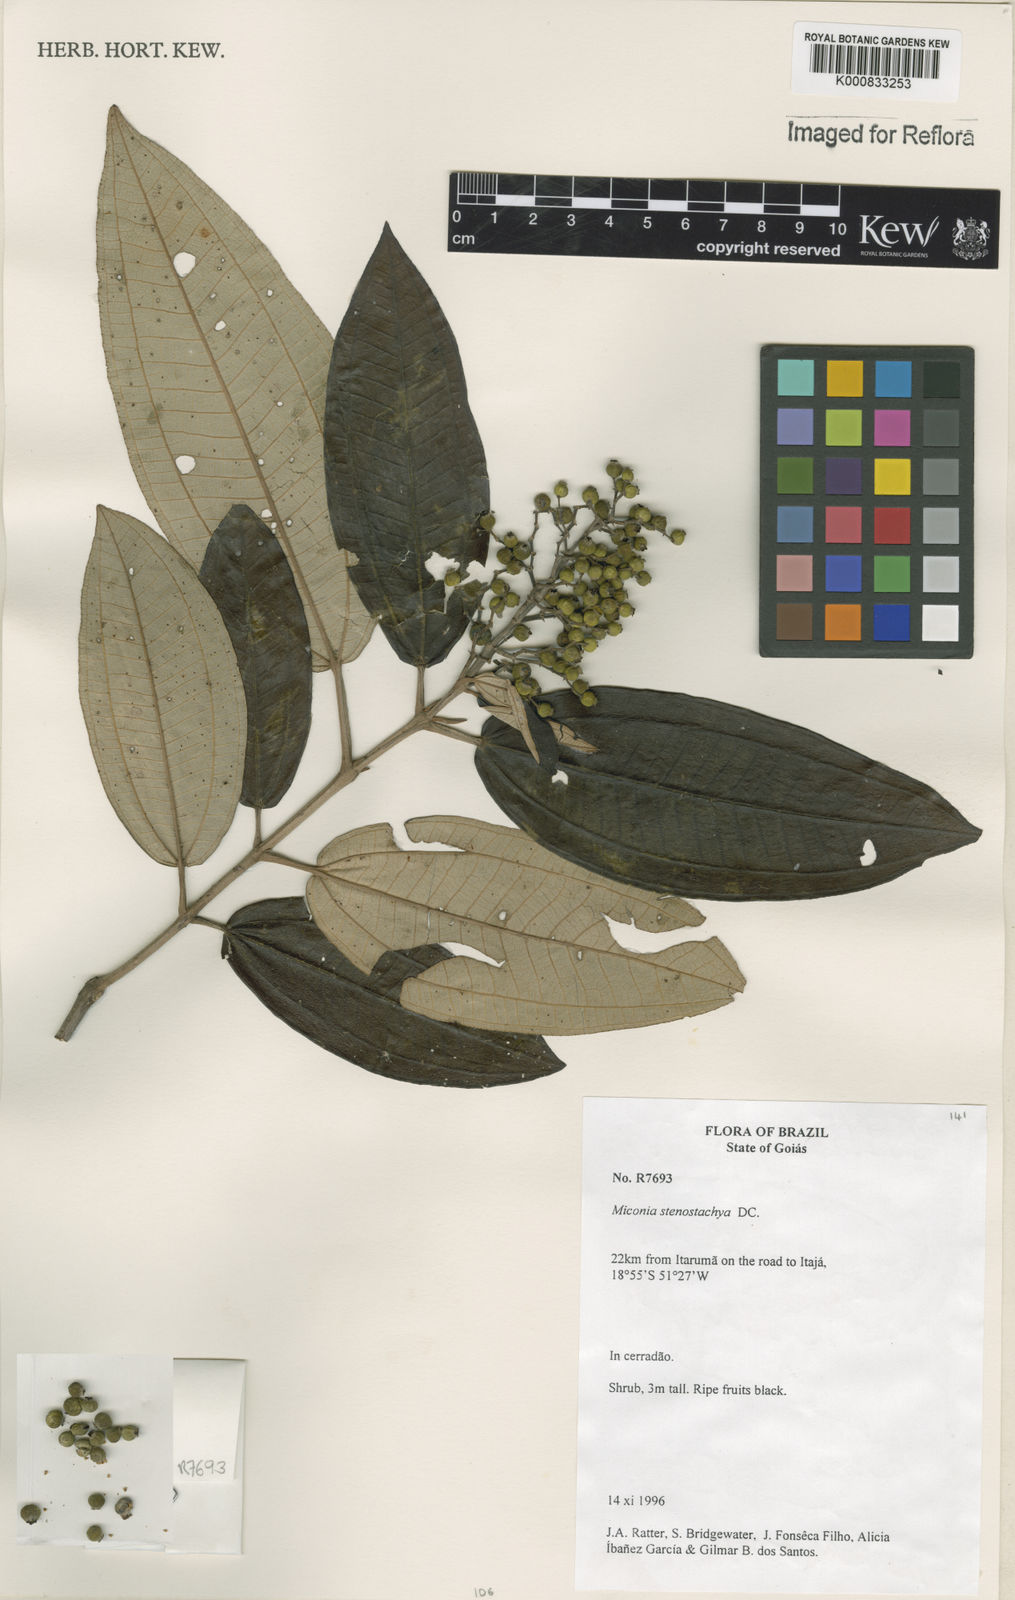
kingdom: Plantae
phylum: Tracheophyta
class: Magnoliopsida
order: Myrtales
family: Melastomataceae
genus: Miconia
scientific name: Miconia stenostachya
